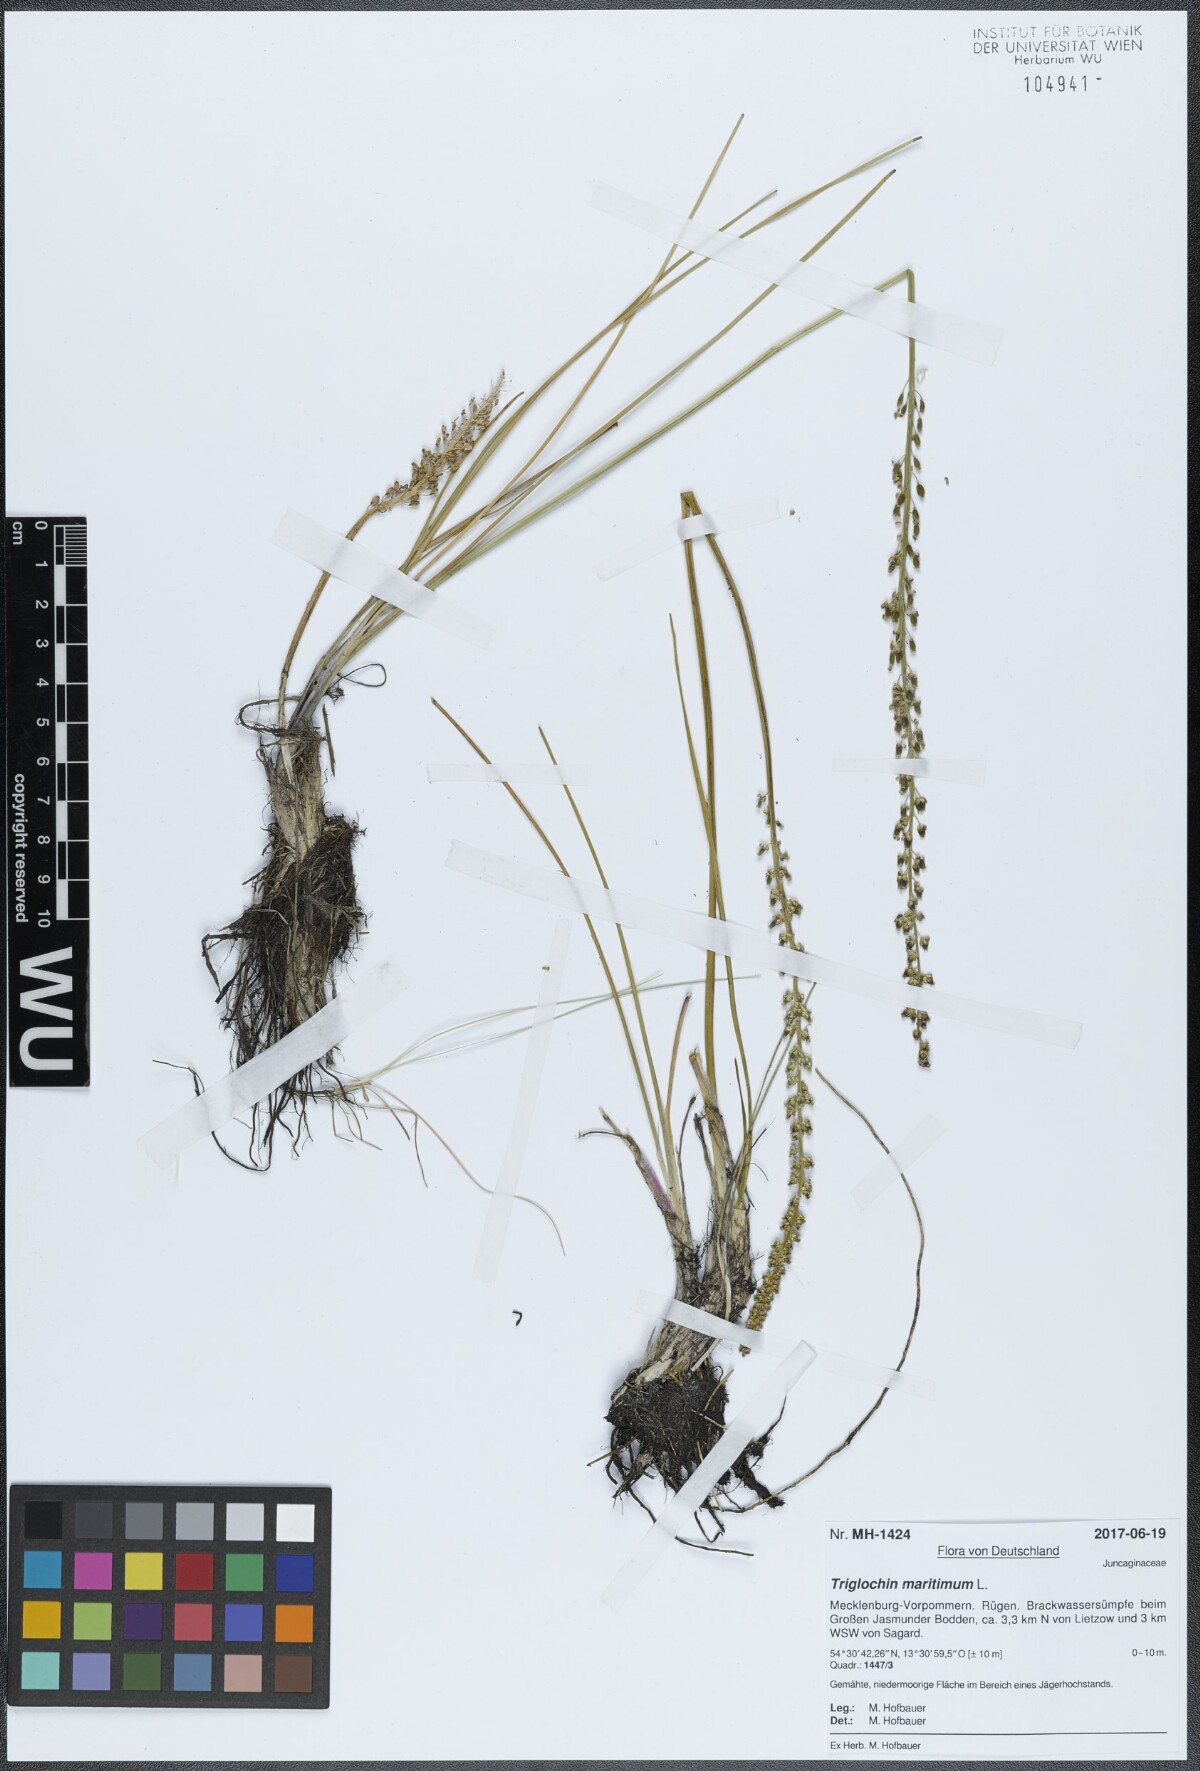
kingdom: Plantae
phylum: Tracheophyta
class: Liliopsida
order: Alismatales
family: Juncaginaceae
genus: Triglochin
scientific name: Triglochin maritima
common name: Sea arrowgrass
